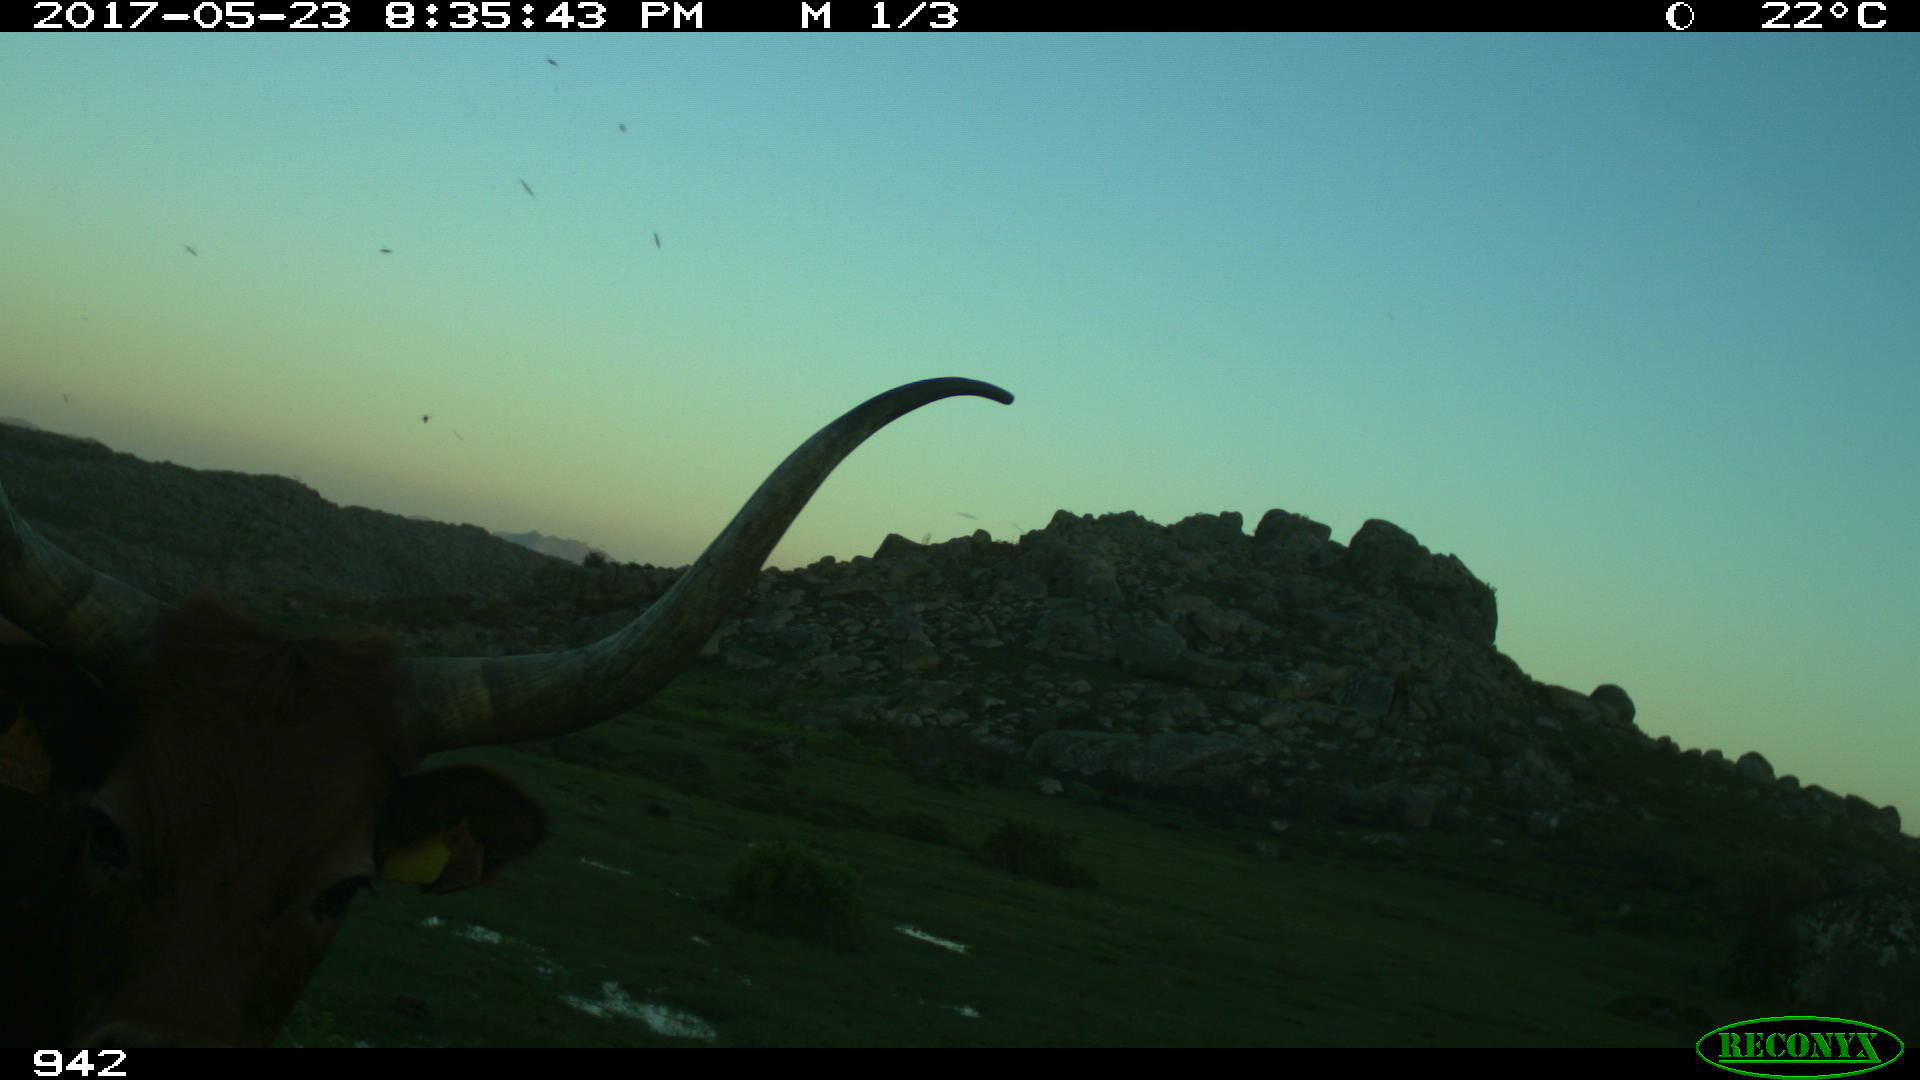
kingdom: Animalia
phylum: Chordata
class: Mammalia
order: Artiodactyla
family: Bovidae
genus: Bos
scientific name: Bos taurus
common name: Domesticated cattle
